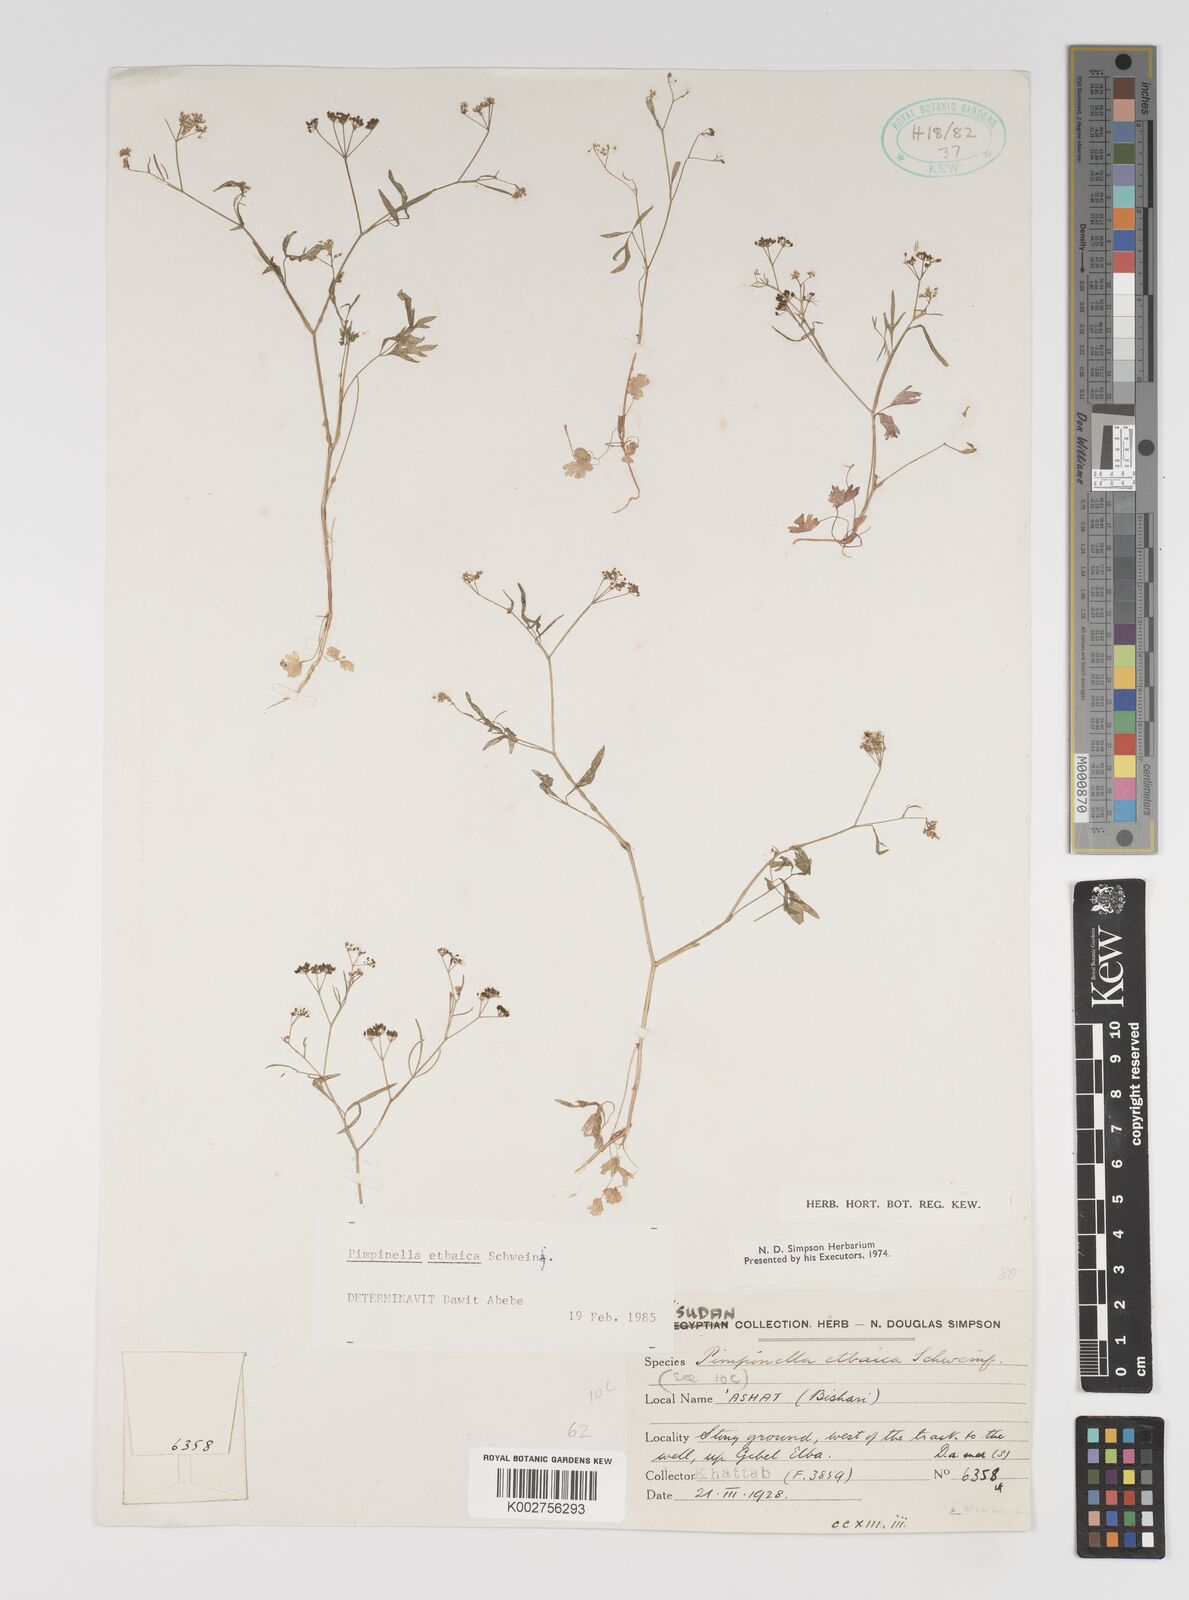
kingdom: Plantae
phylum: Tracheophyta
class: Magnoliopsida
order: Apiales
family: Apiaceae
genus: Pimpinella
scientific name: Pimpinella etbaica
